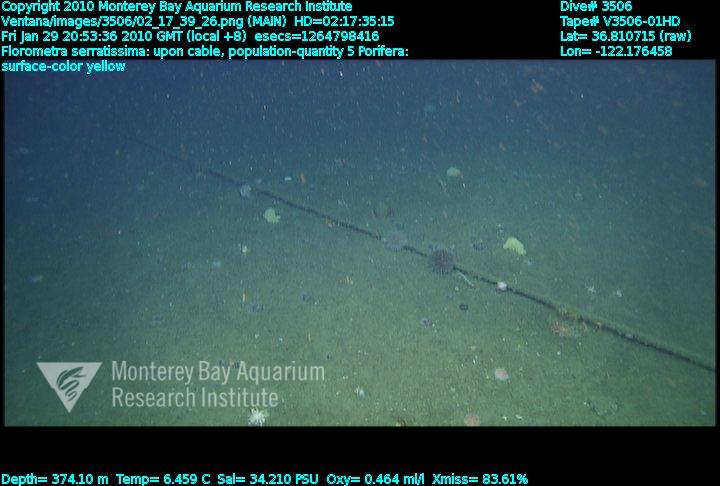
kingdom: Animalia
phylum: Porifera
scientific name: Porifera
